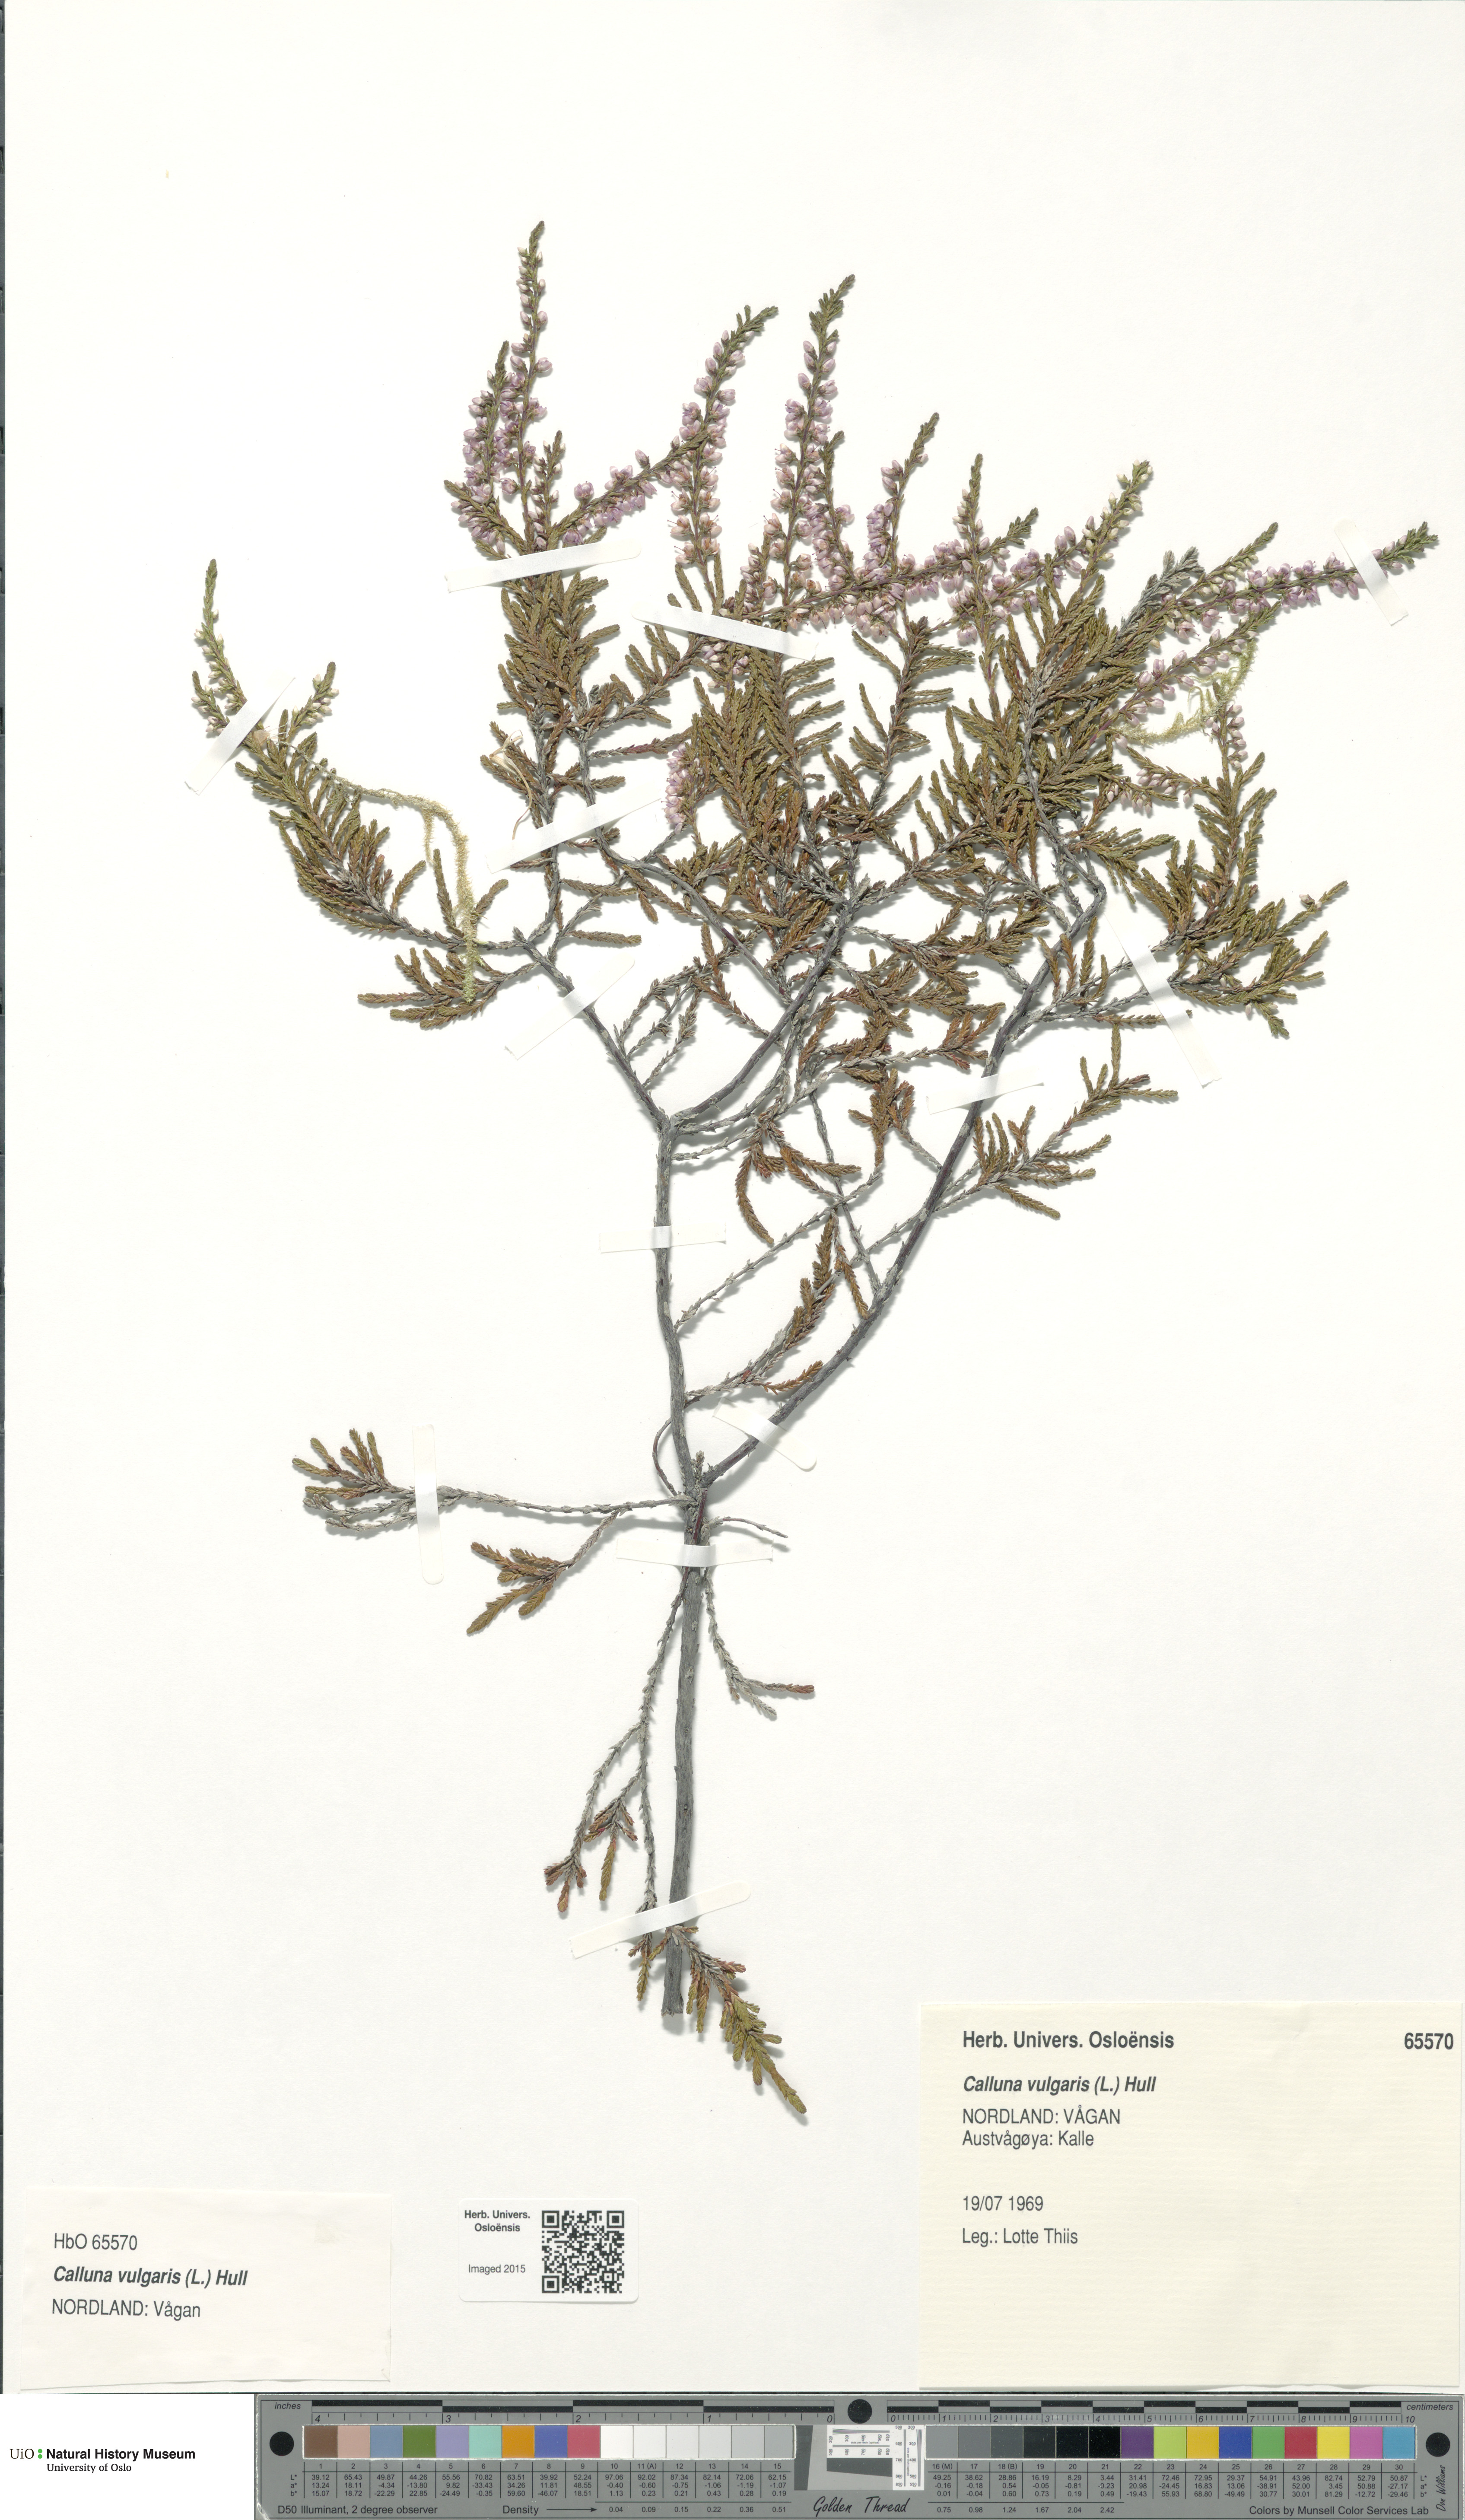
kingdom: Plantae
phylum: Tracheophyta
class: Magnoliopsida
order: Ericales
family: Ericaceae
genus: Calluna
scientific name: Calluna vulgaris
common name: Heather
